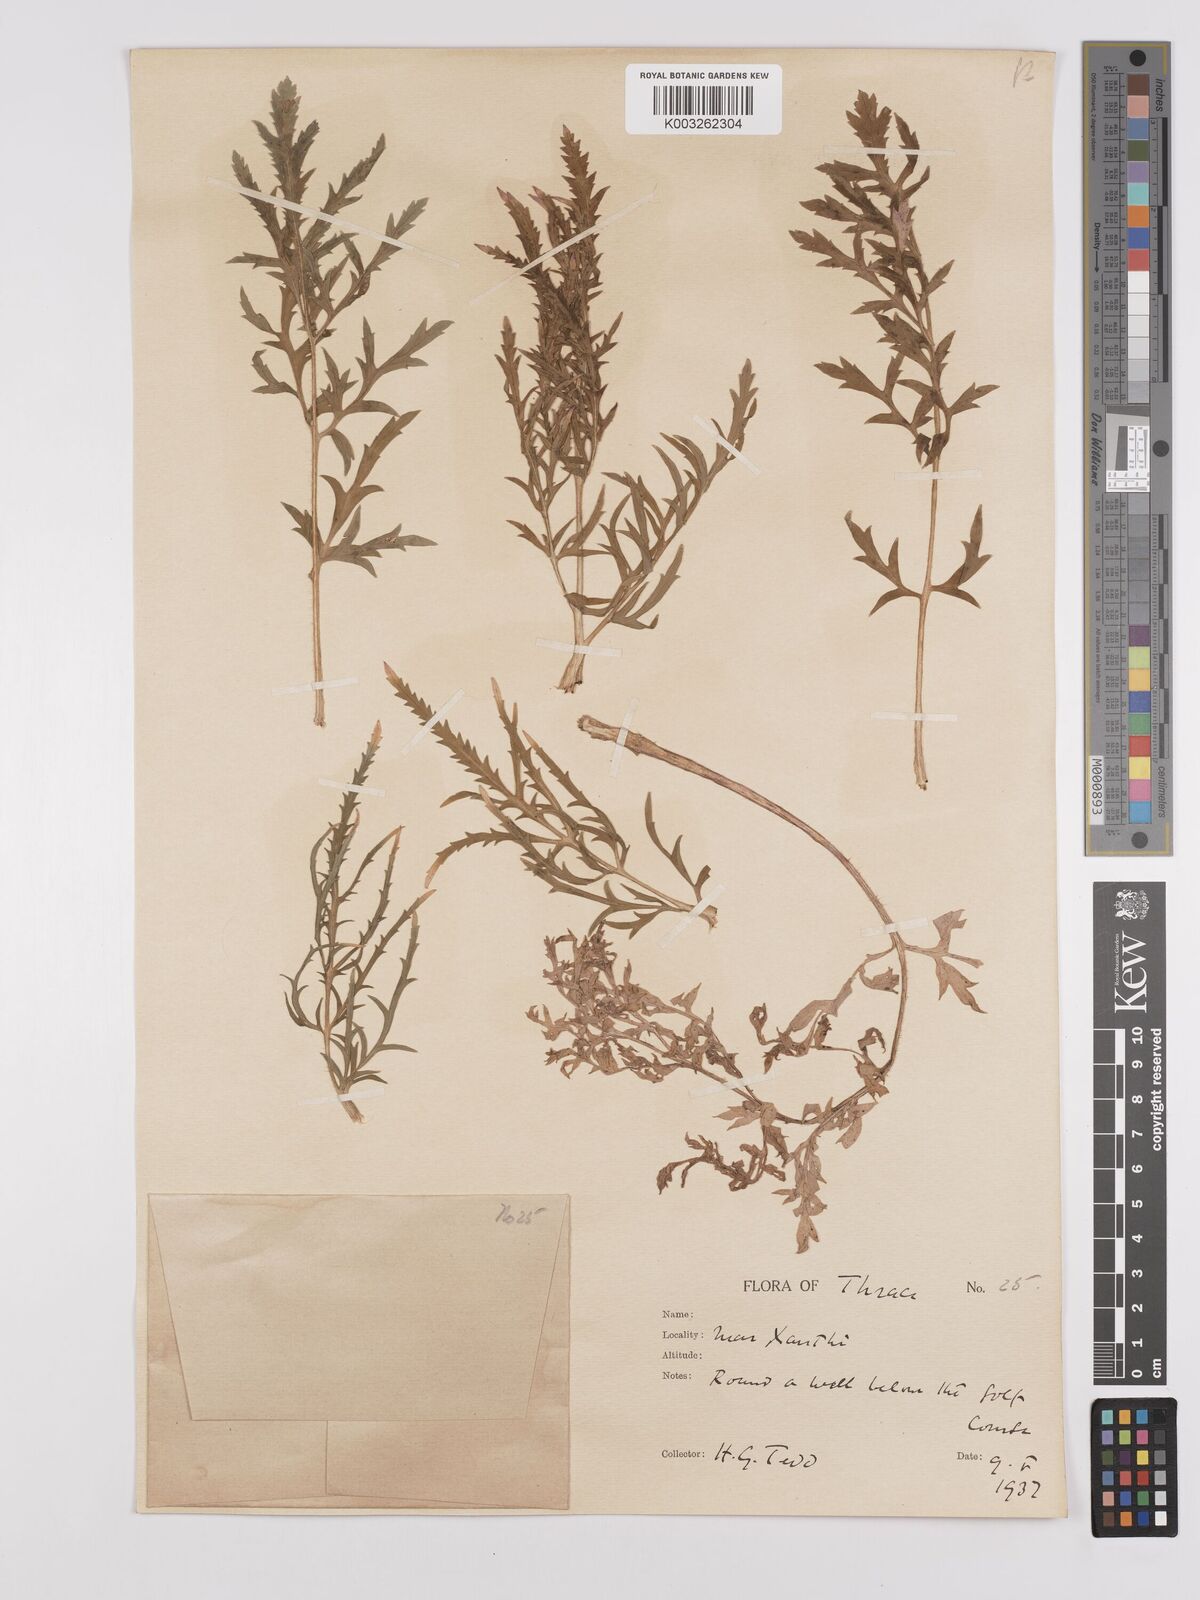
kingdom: Plantae
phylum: Tracheophyta
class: Magnoliopsida
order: Ranunculales
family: Papaveraceae
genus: Papaver
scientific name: Papaver rhoeas
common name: Corn poppy
